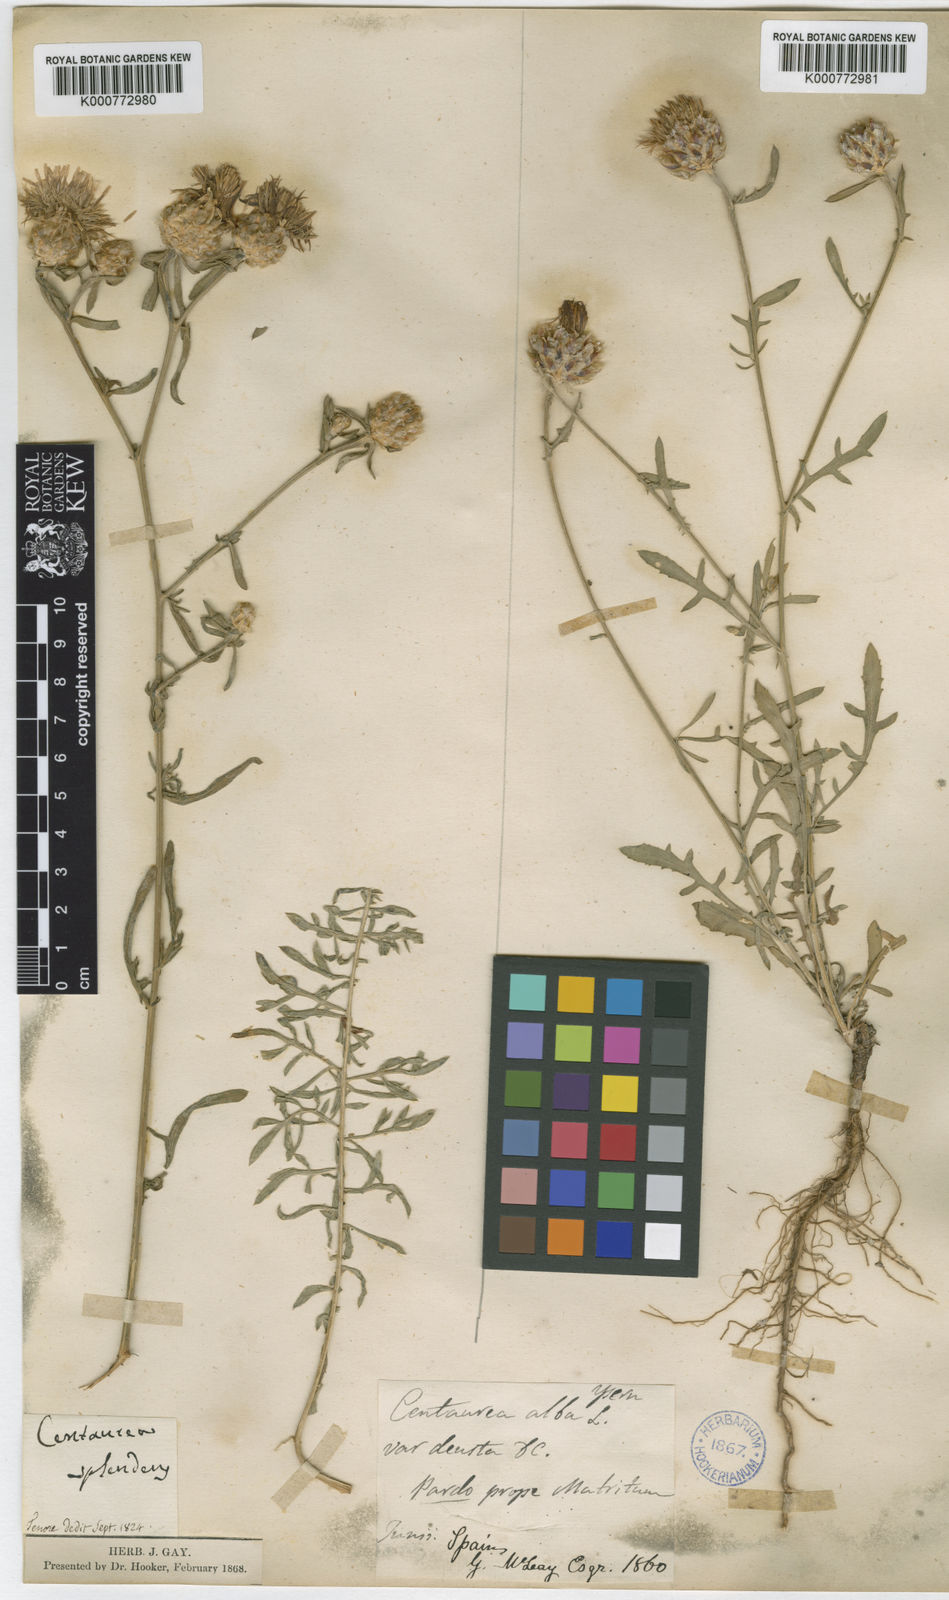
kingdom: Plantae
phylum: Tracheophyta
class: Magnoliopsida
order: Asterales
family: Asteraceae
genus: Centaurea
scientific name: Centaurea deusta
